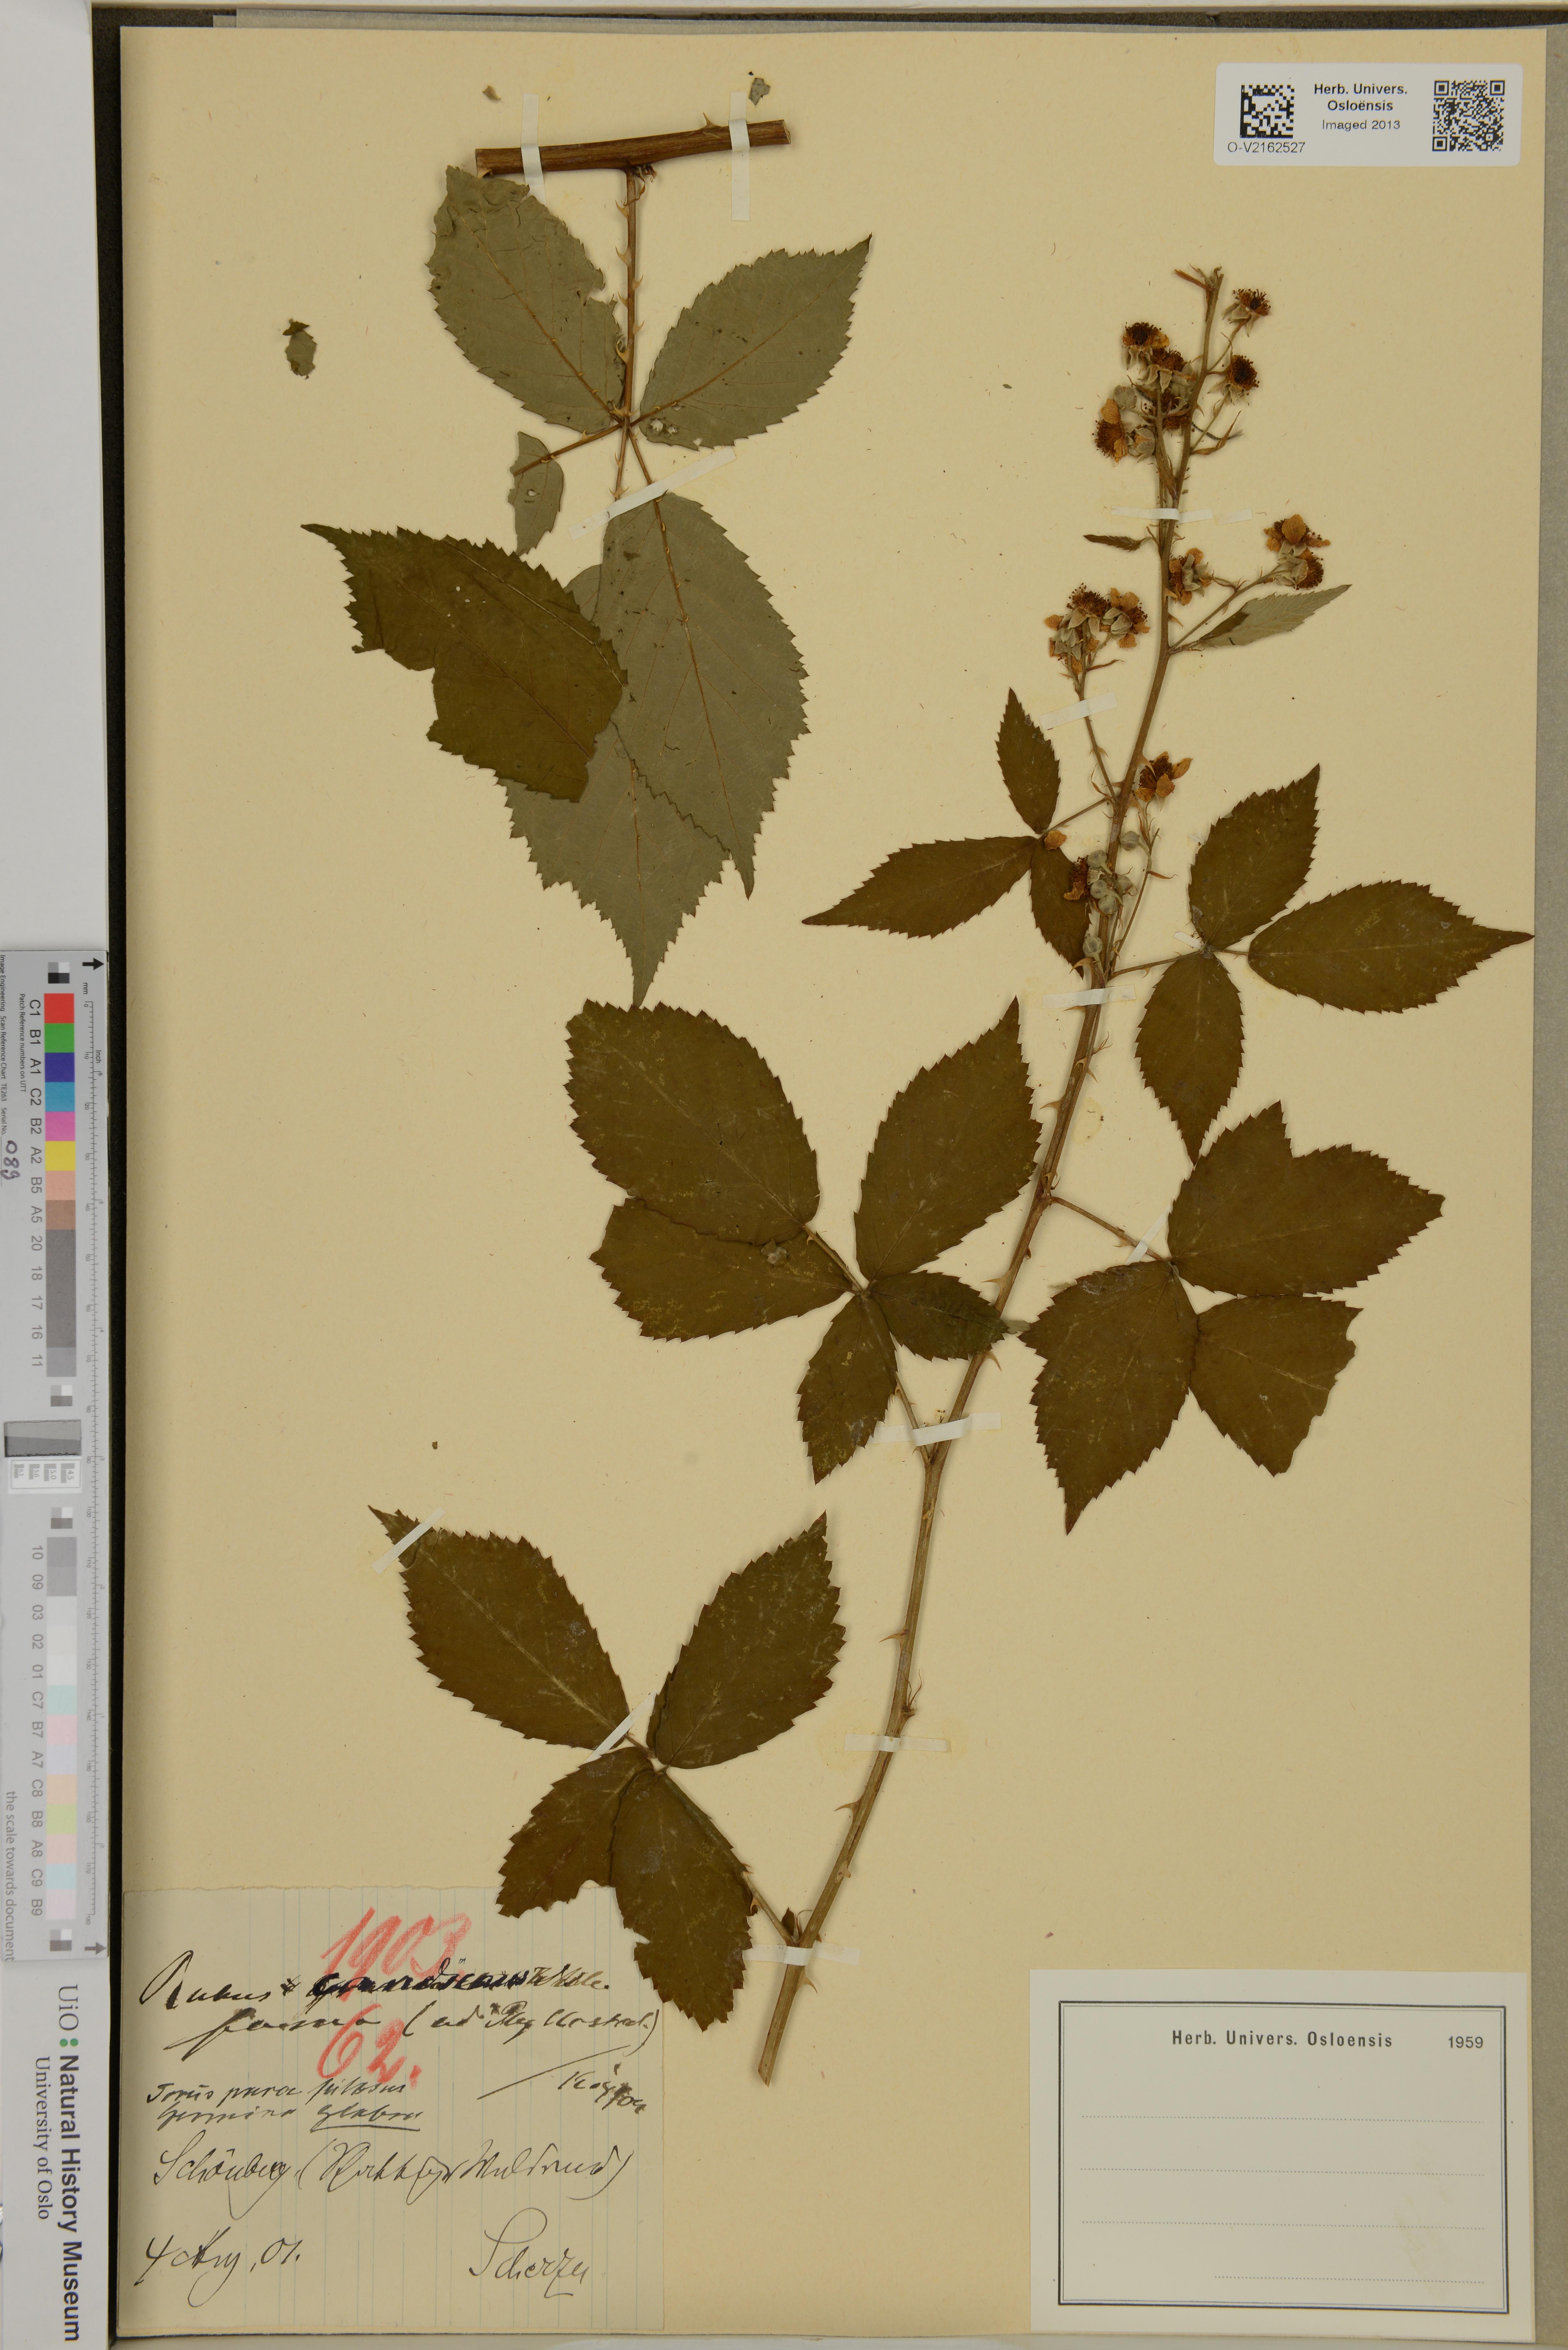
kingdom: Plantae
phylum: Tracheophyta
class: Magnoliopsida
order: Rosales
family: Rosaceae
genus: Rubus
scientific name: Rubus
